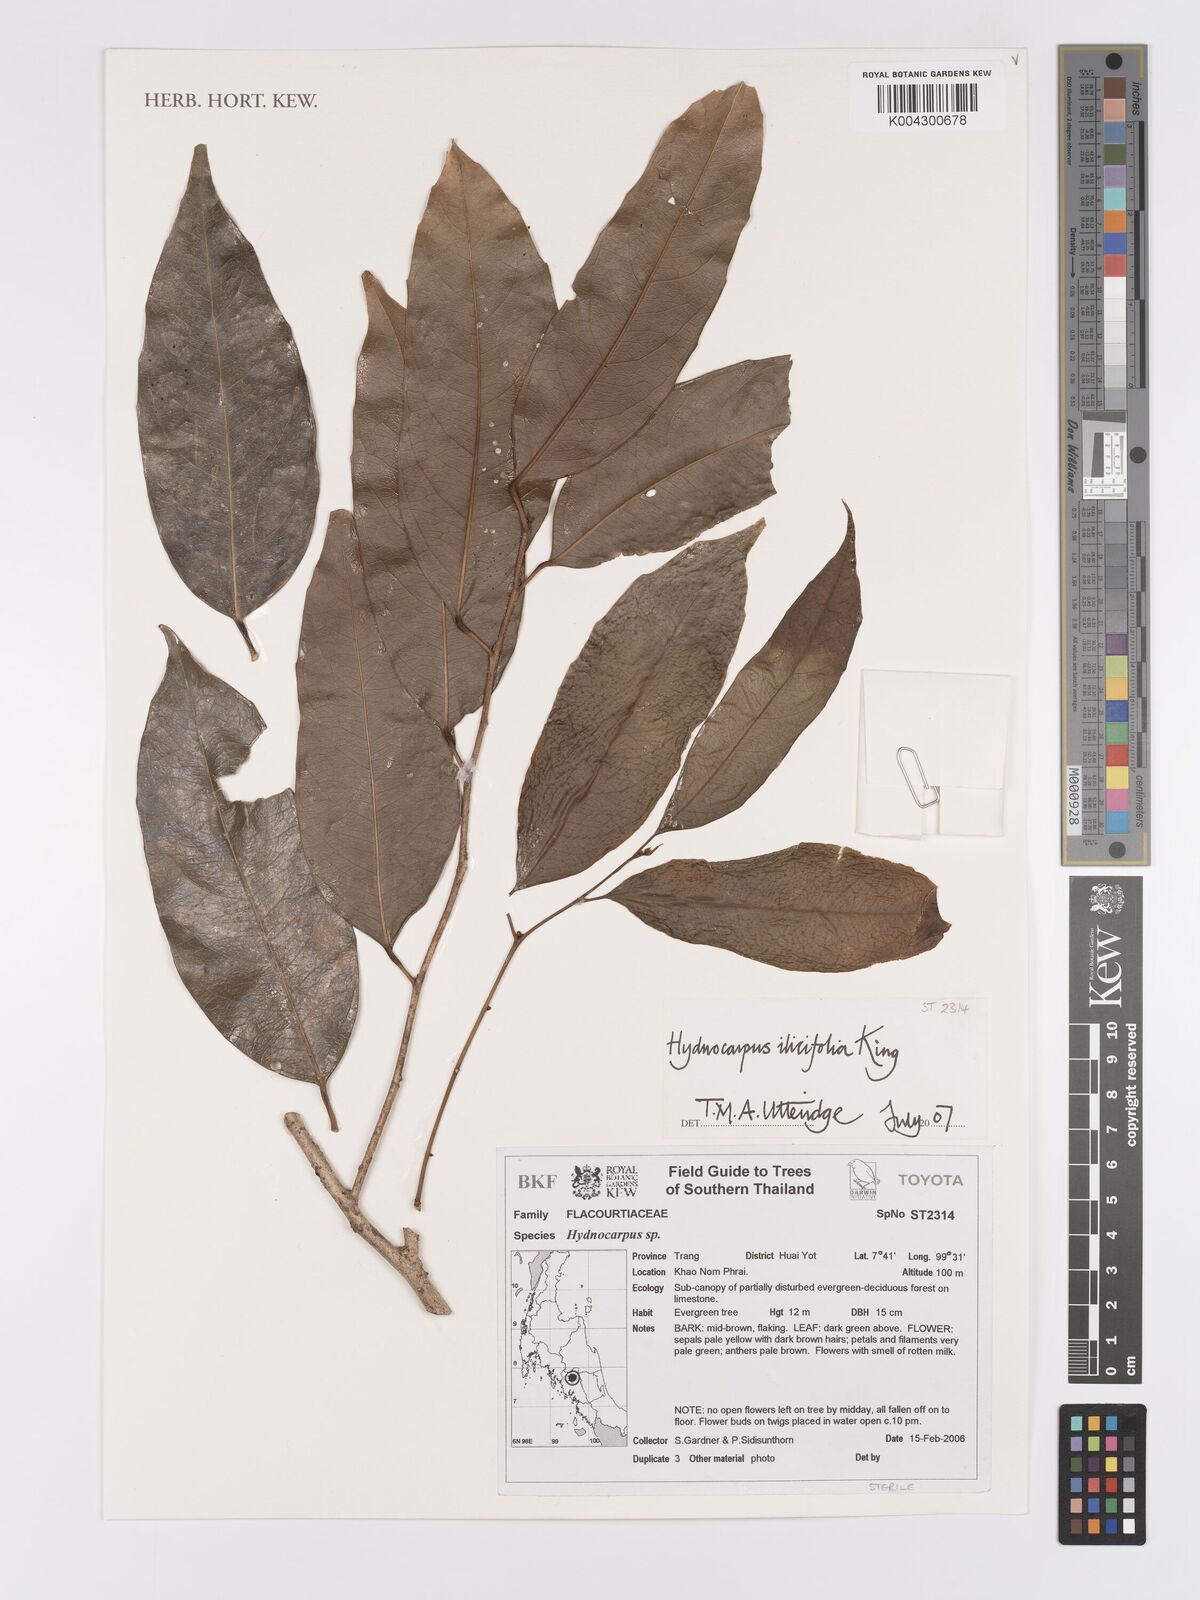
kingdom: Plantae
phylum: Tracheophyta
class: Magnoliopsida
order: Malpighiales
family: Achariaceae
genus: Hydnocarpus
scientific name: Hydnocarpus ilicifolius
